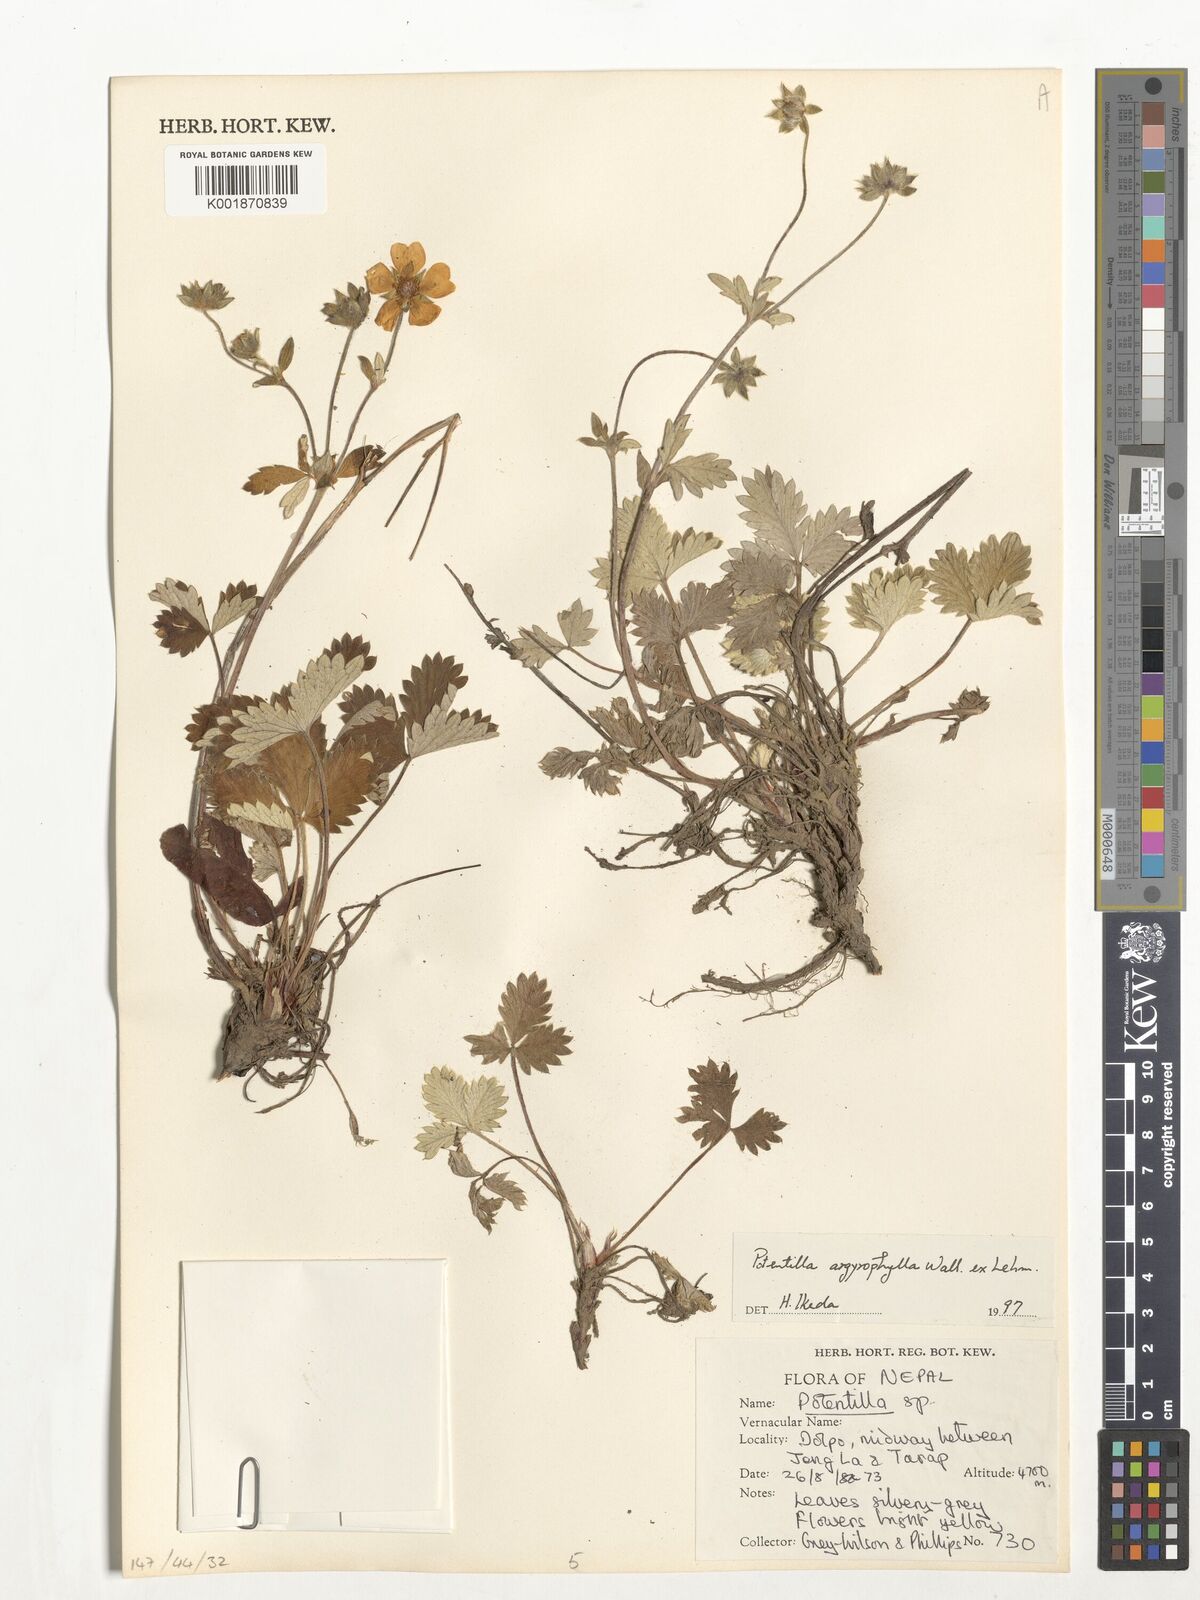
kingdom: Plantae
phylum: Tracheophyta
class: Magnoliopsida
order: Rosales
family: Rosaceae
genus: Potentilla
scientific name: Potentilla argyrophylla
